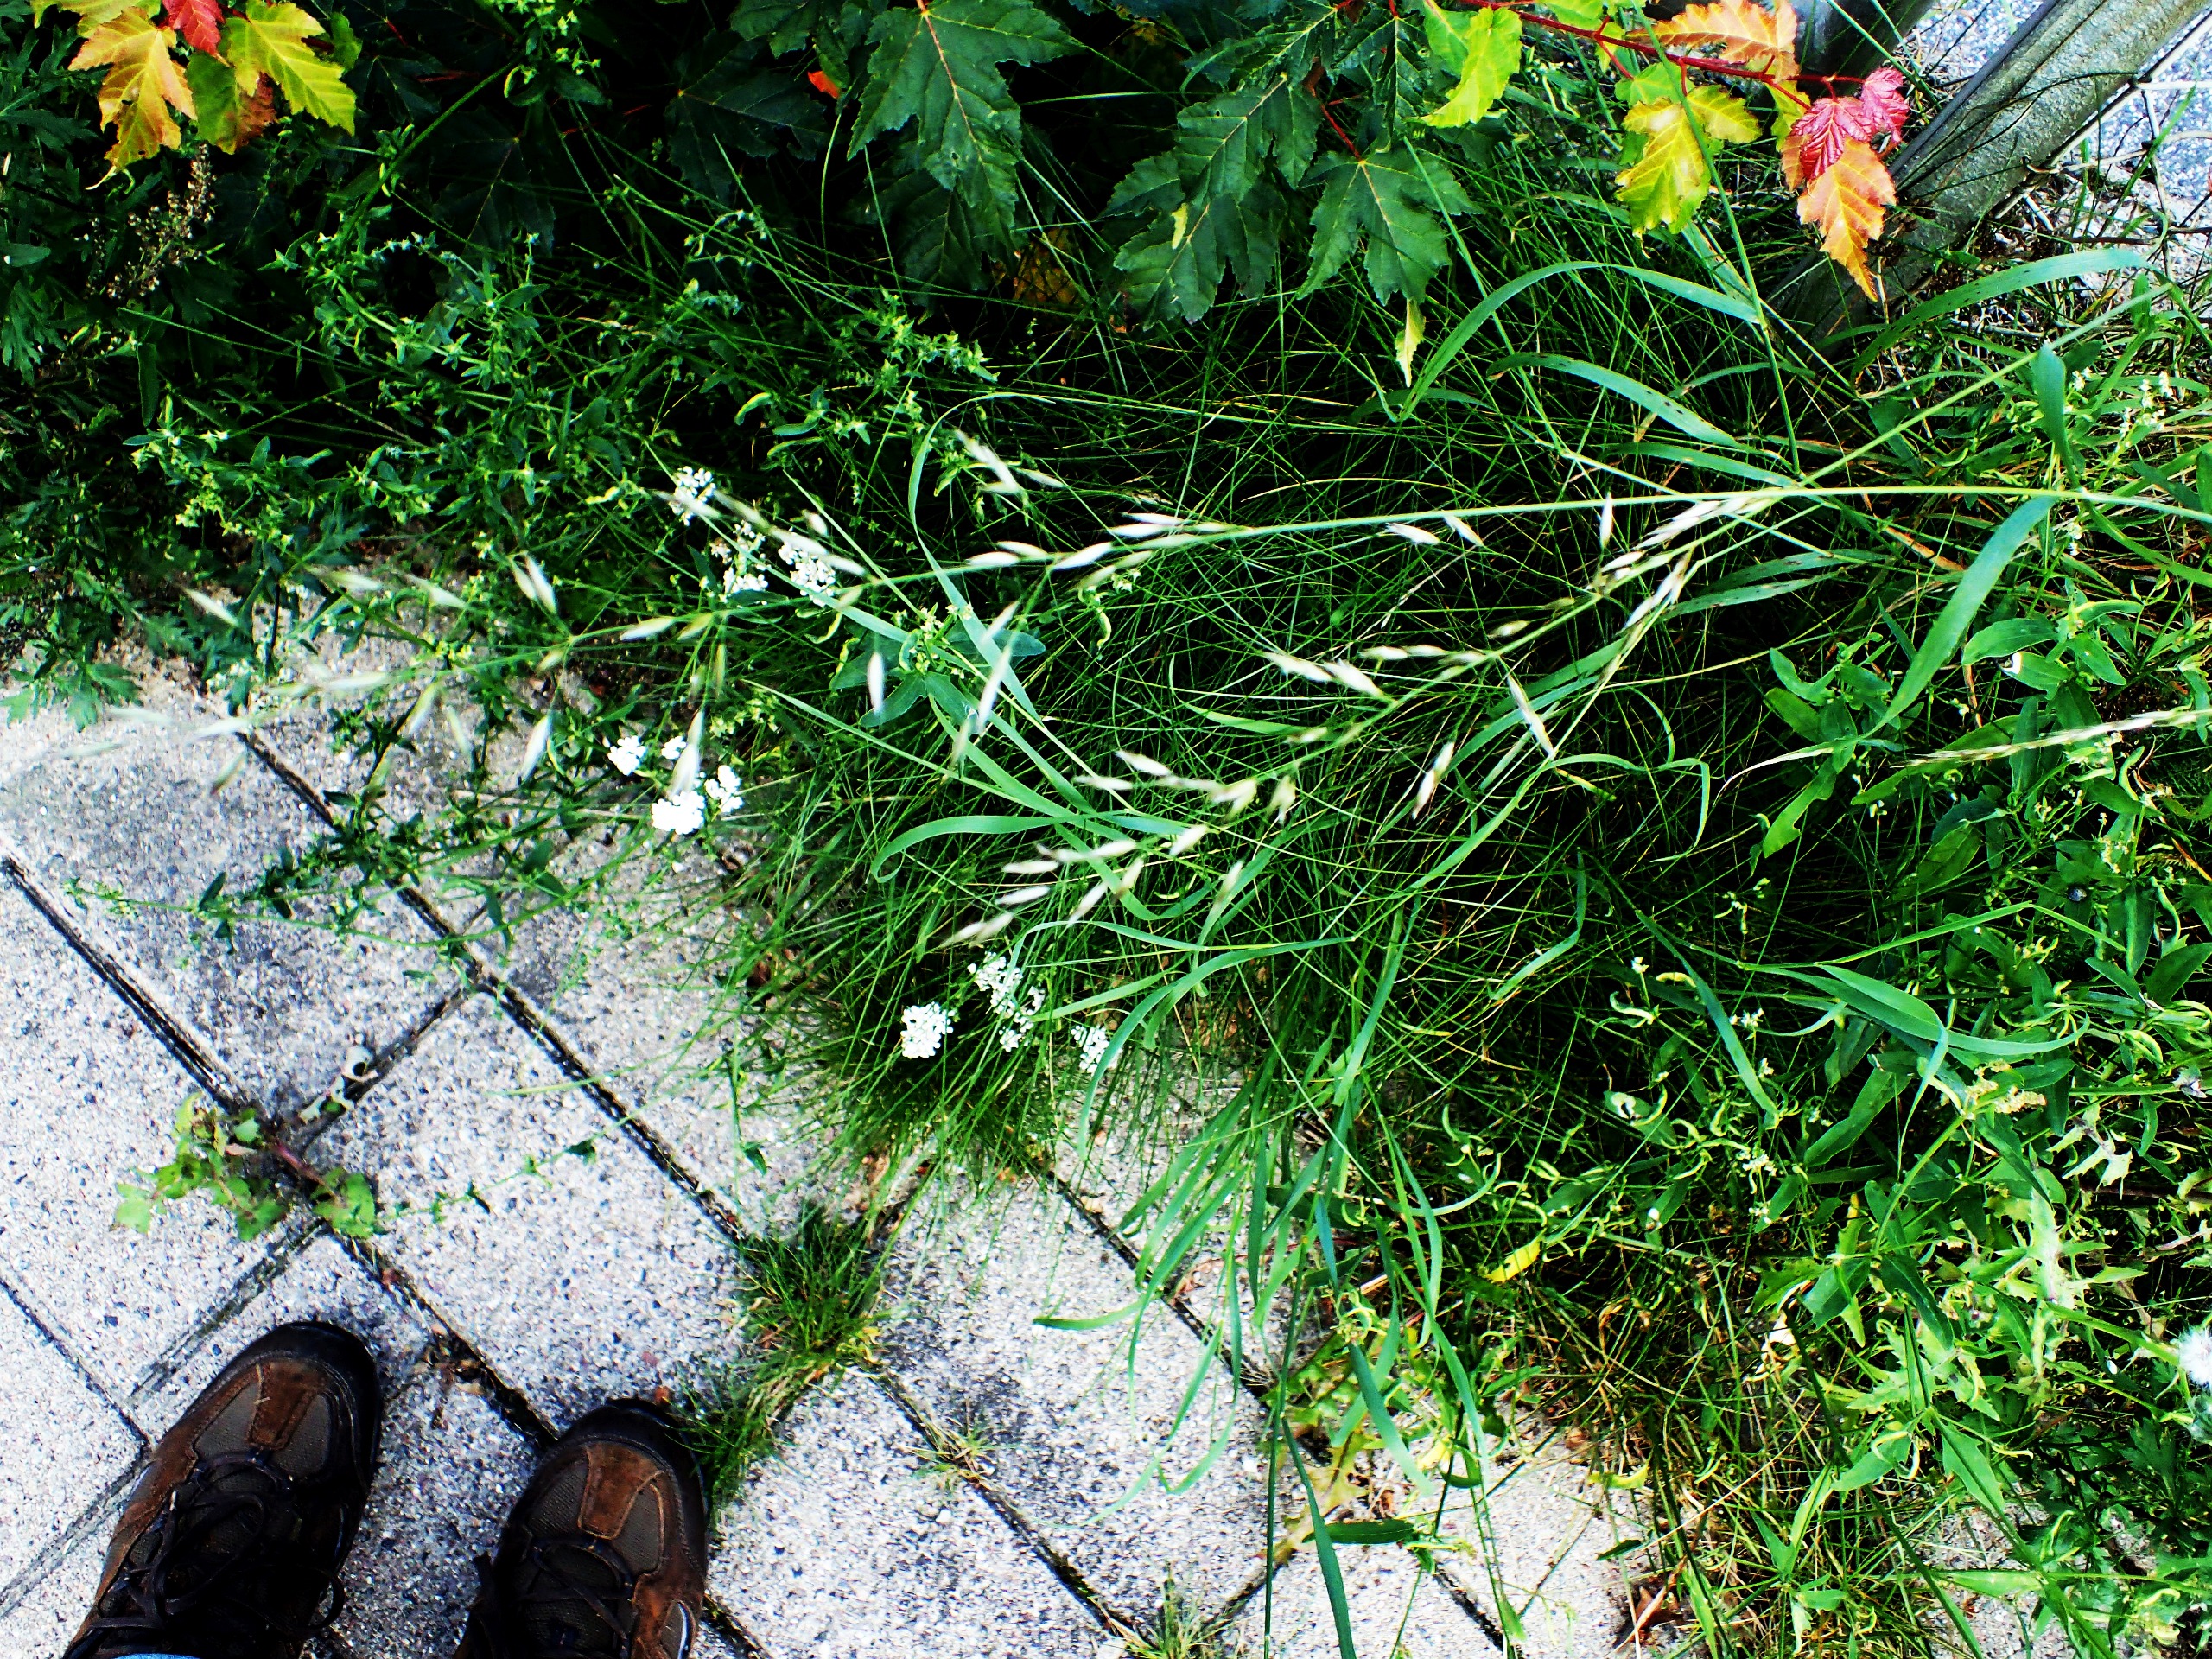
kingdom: Plantae
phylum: Tracheophyta
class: Liliopsida
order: Poales
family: Poaceae
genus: Arrhenatherum
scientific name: Arrhenatherum elatius
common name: Draphavre
